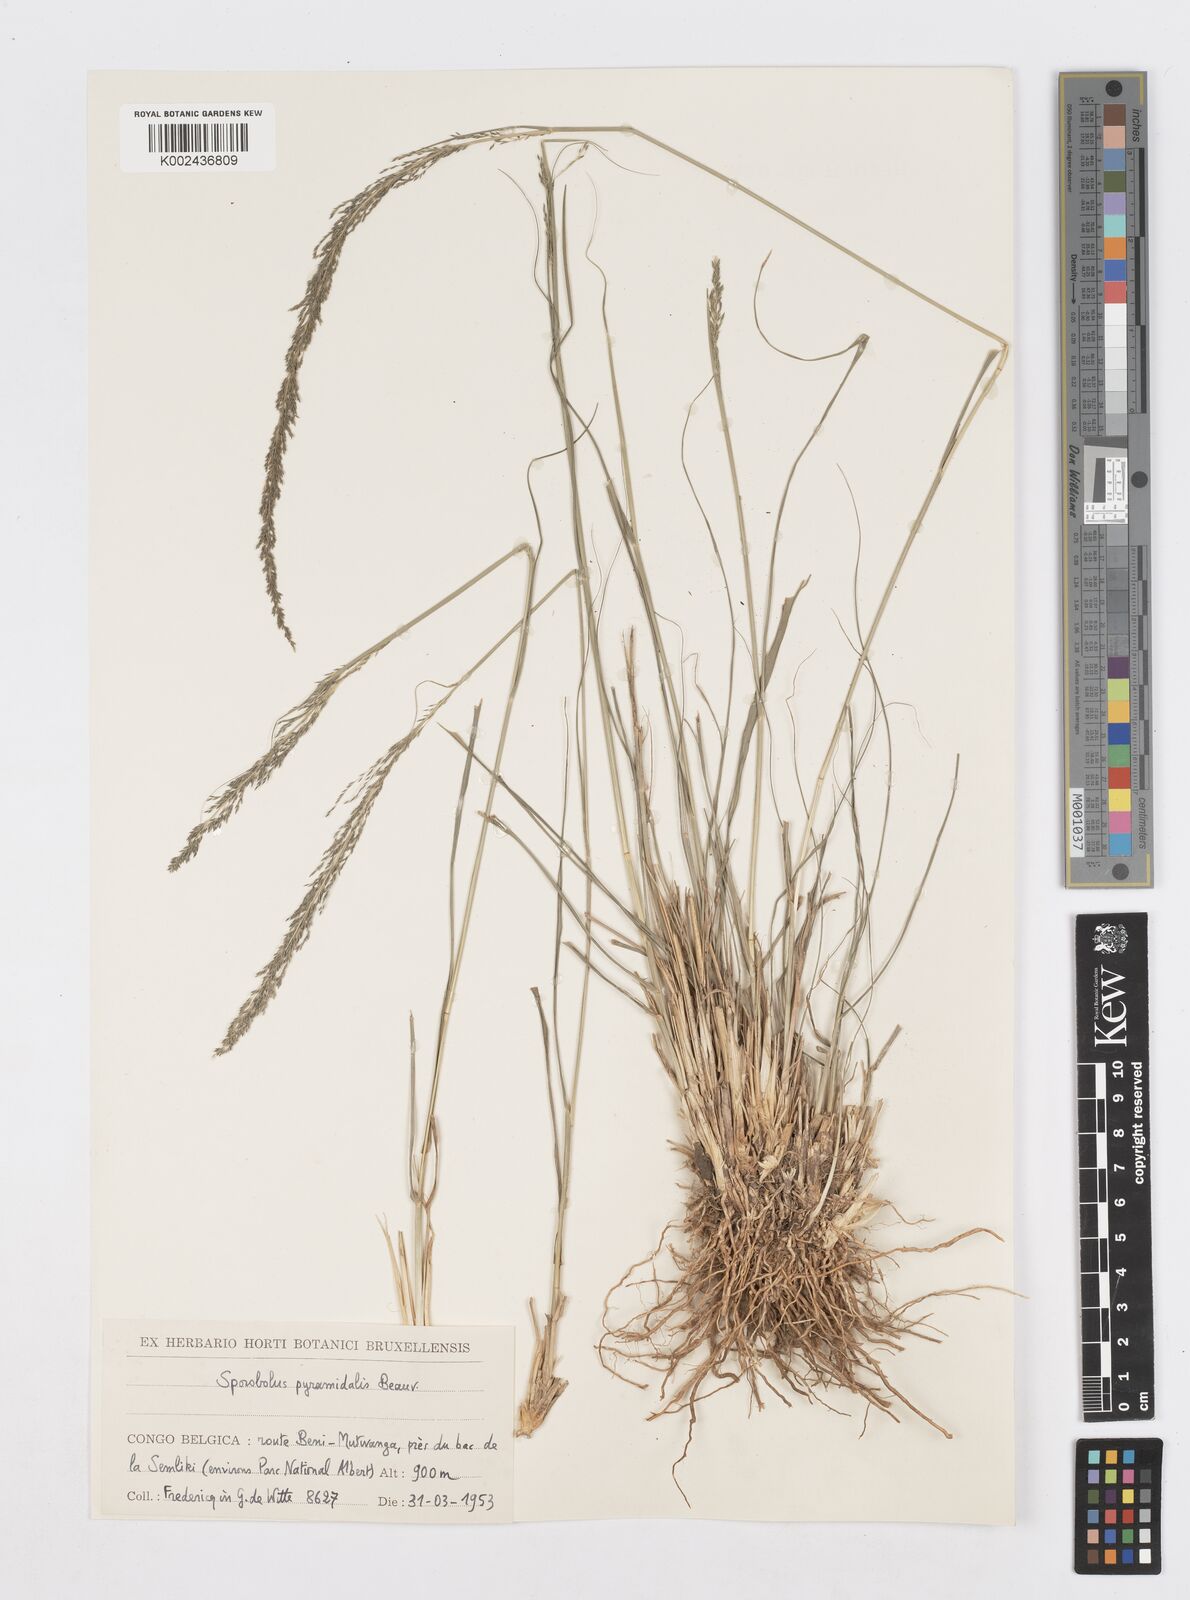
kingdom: Plantae
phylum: Tracheophyta
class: Liliopsida
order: Poales
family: Poaceae
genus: Sporobolus
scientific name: Sporobolus pyramidalis
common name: West indian dropseed
